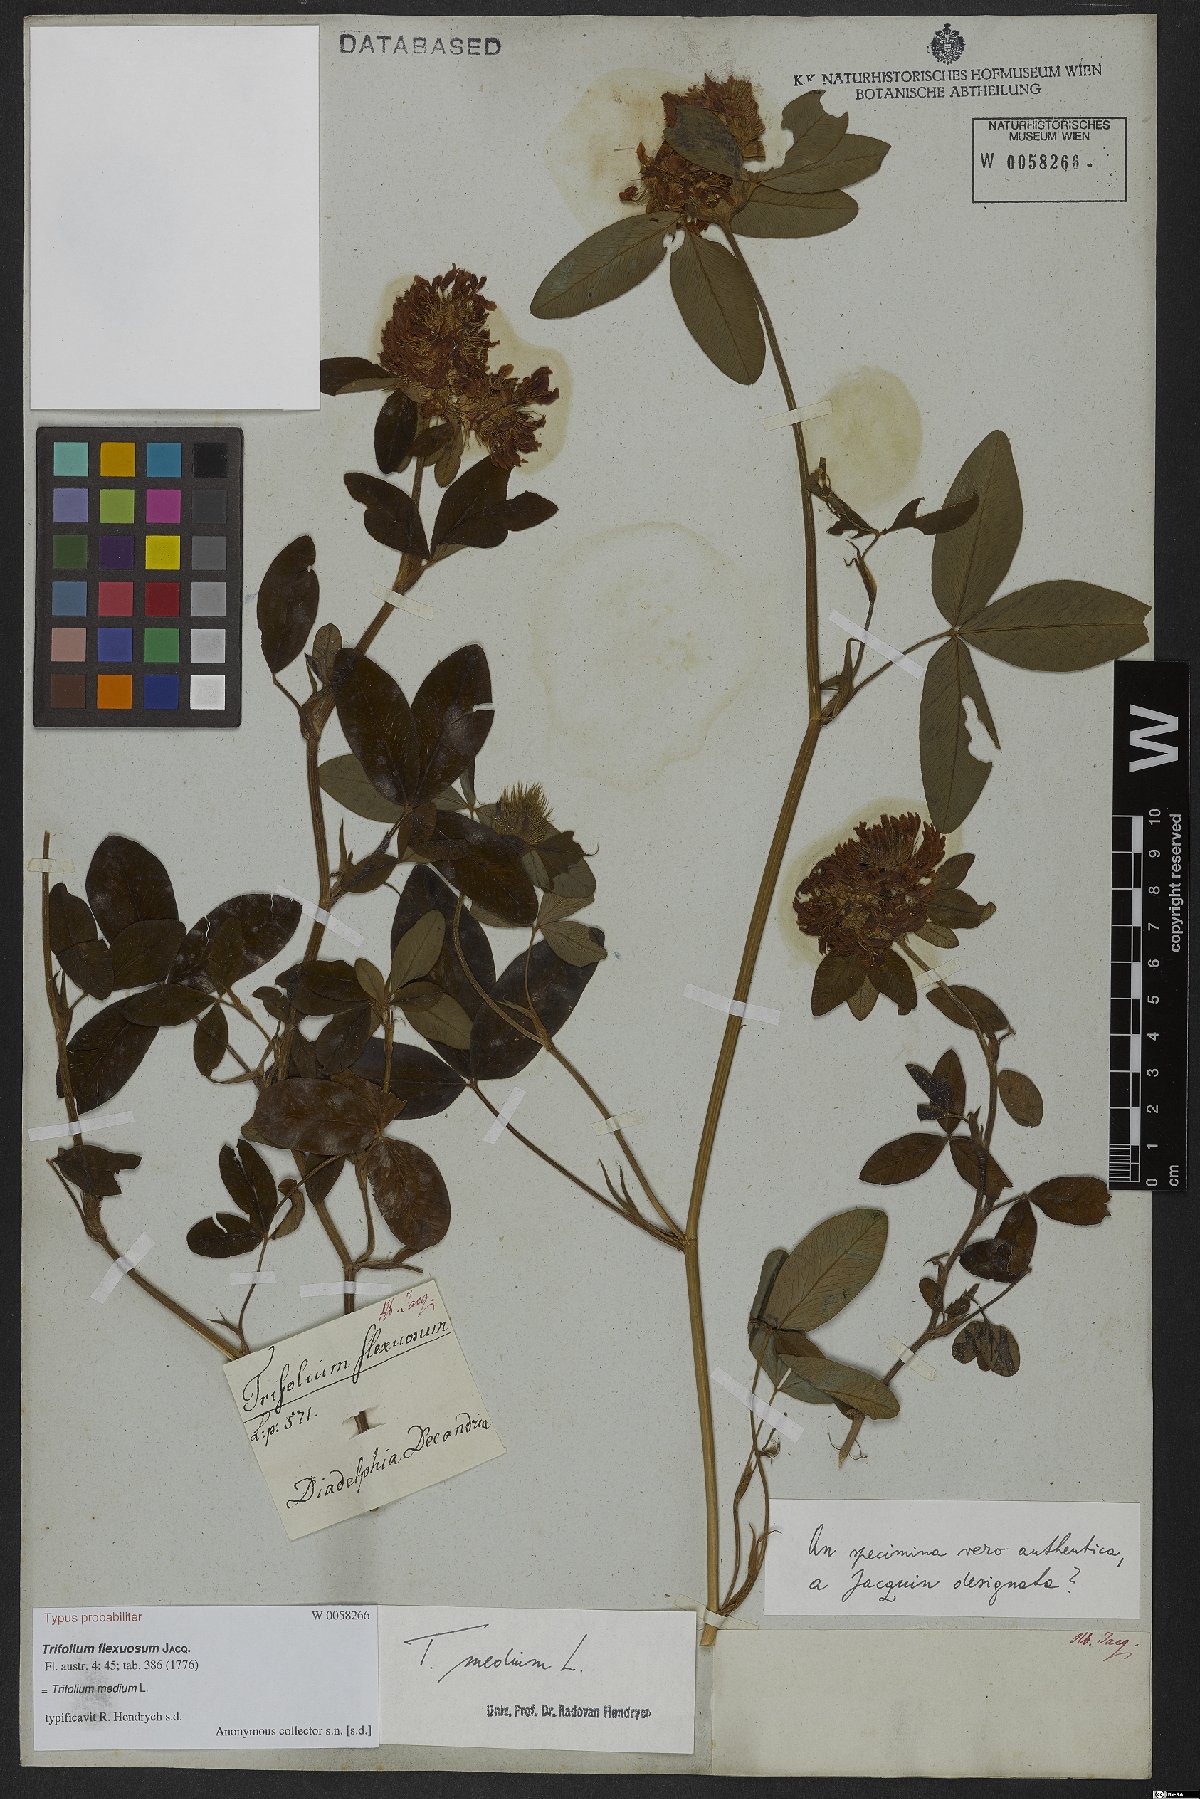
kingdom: Plantae
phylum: Tracheophyta
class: Magnoliopsida
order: Fabales
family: Fabaceae
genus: Trifolium
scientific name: Trifolium medium
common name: Zigzag clover
